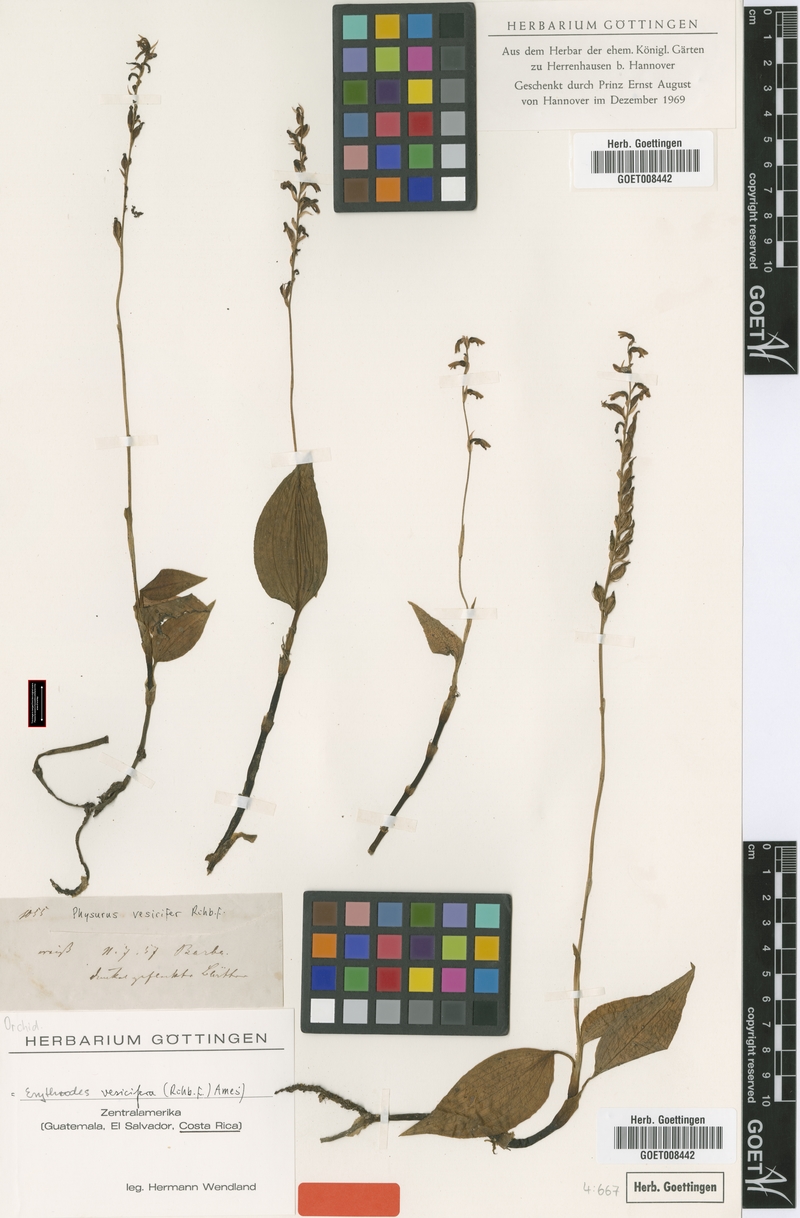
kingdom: Plantae
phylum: Tracheophyta
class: Liliopsida
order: Asparagales
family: Orchidaceae
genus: Microchilus
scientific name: Microchilus vesicifer
